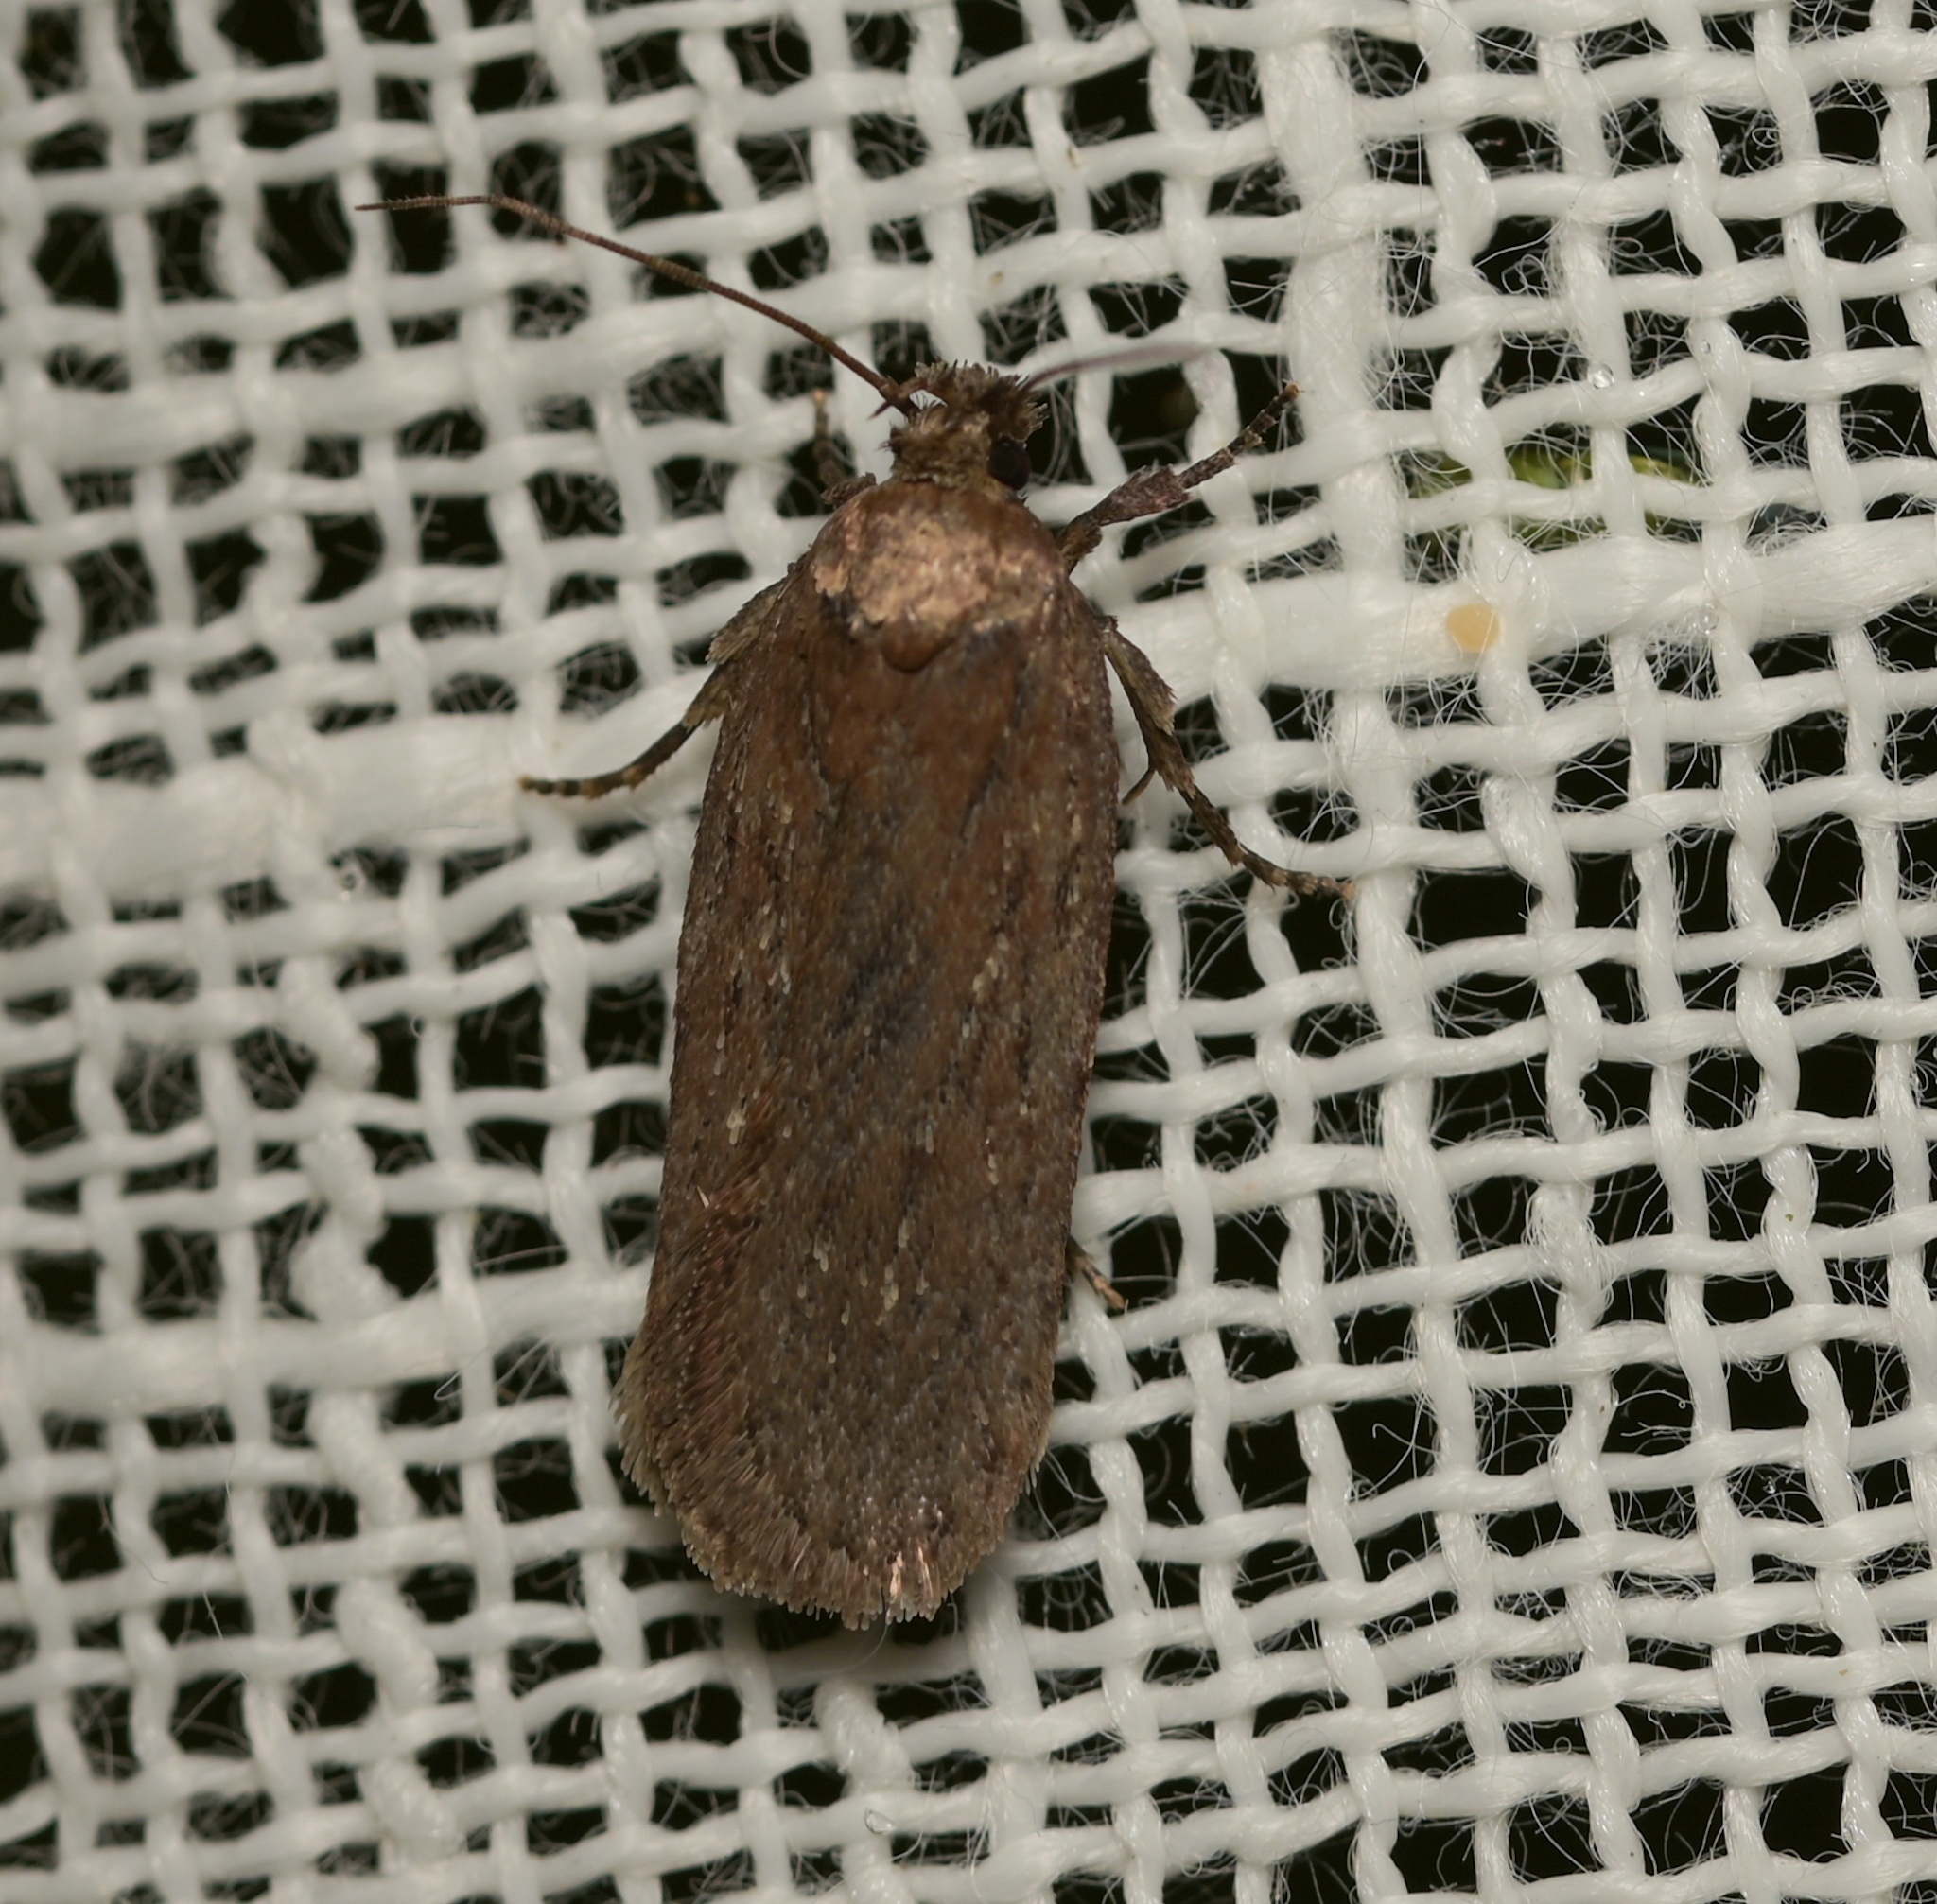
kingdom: Animalia
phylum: Arthropoda
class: Insecta
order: Lepidoptera
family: Depressariidae
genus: Depressaria
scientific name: Depressaria pimpinellae
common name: Pimpinel flat-body
